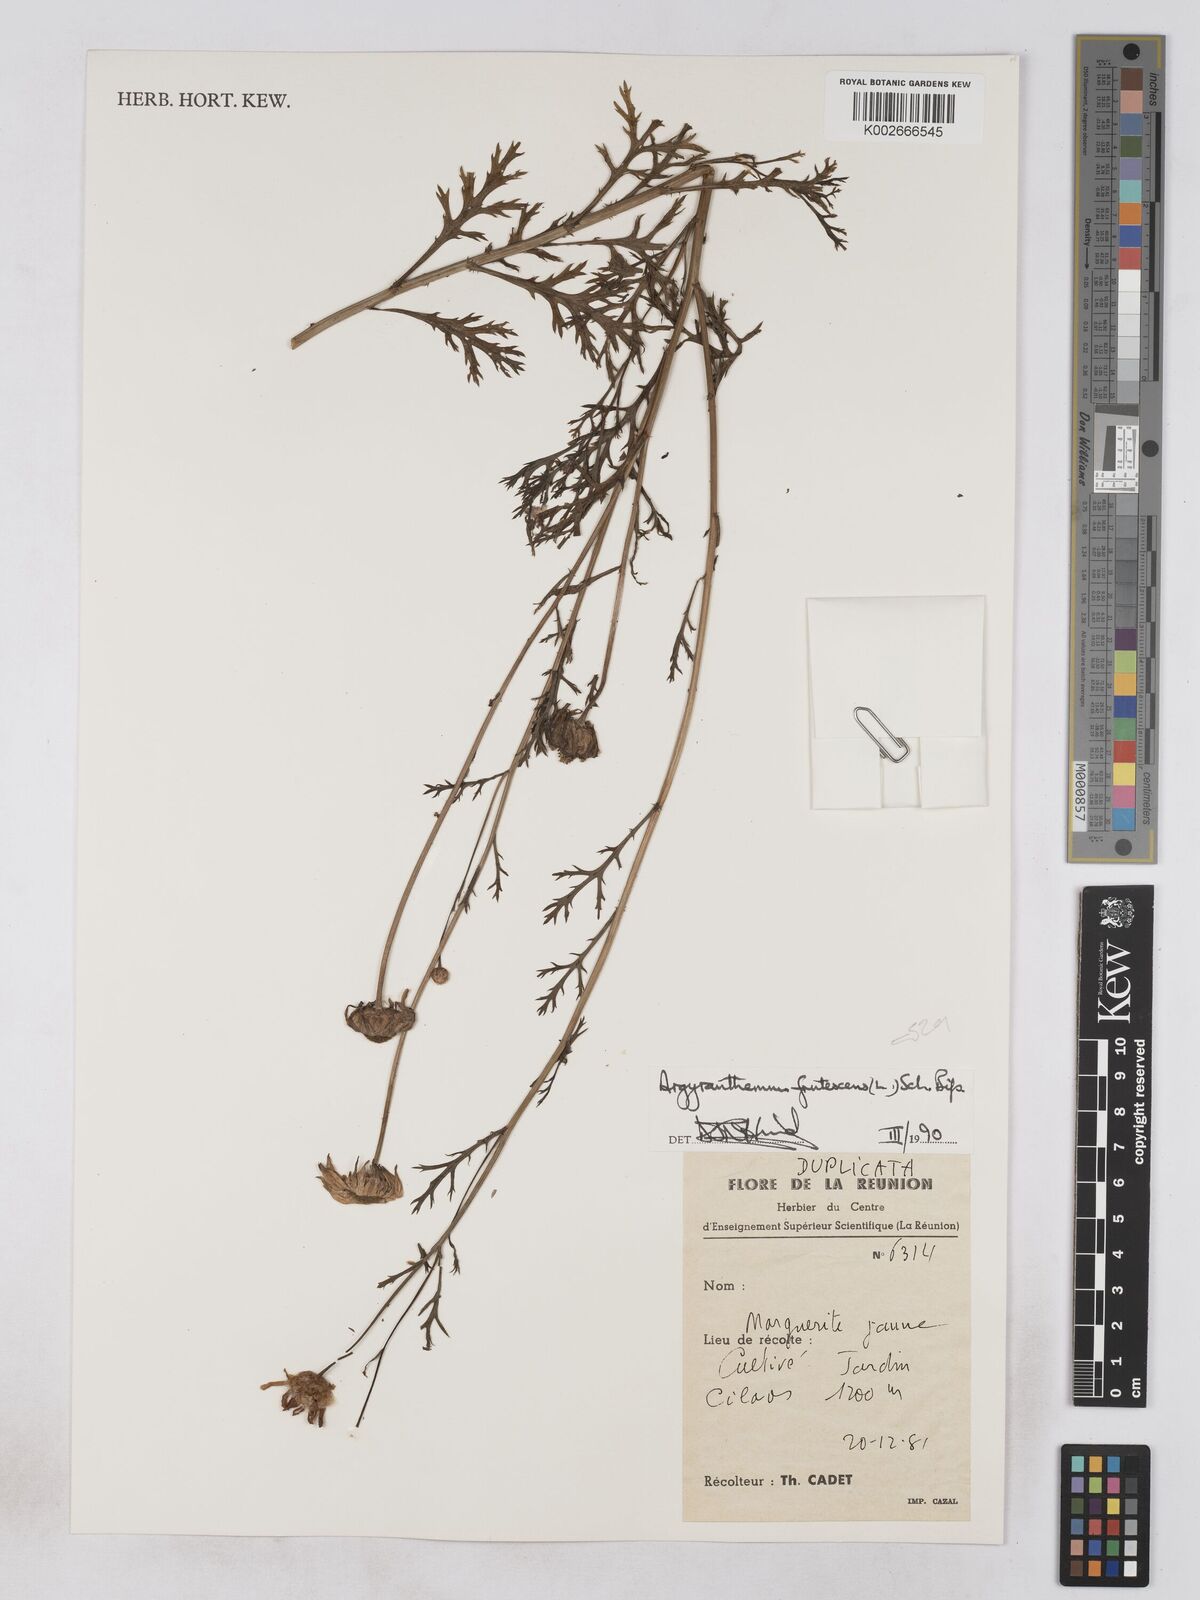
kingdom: Plantae
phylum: Tracheophyta
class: Magnoliopsida
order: Asterales
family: Asteraceae
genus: Argyranthemum
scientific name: Argyranthemum frutescens
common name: Paris daisy
